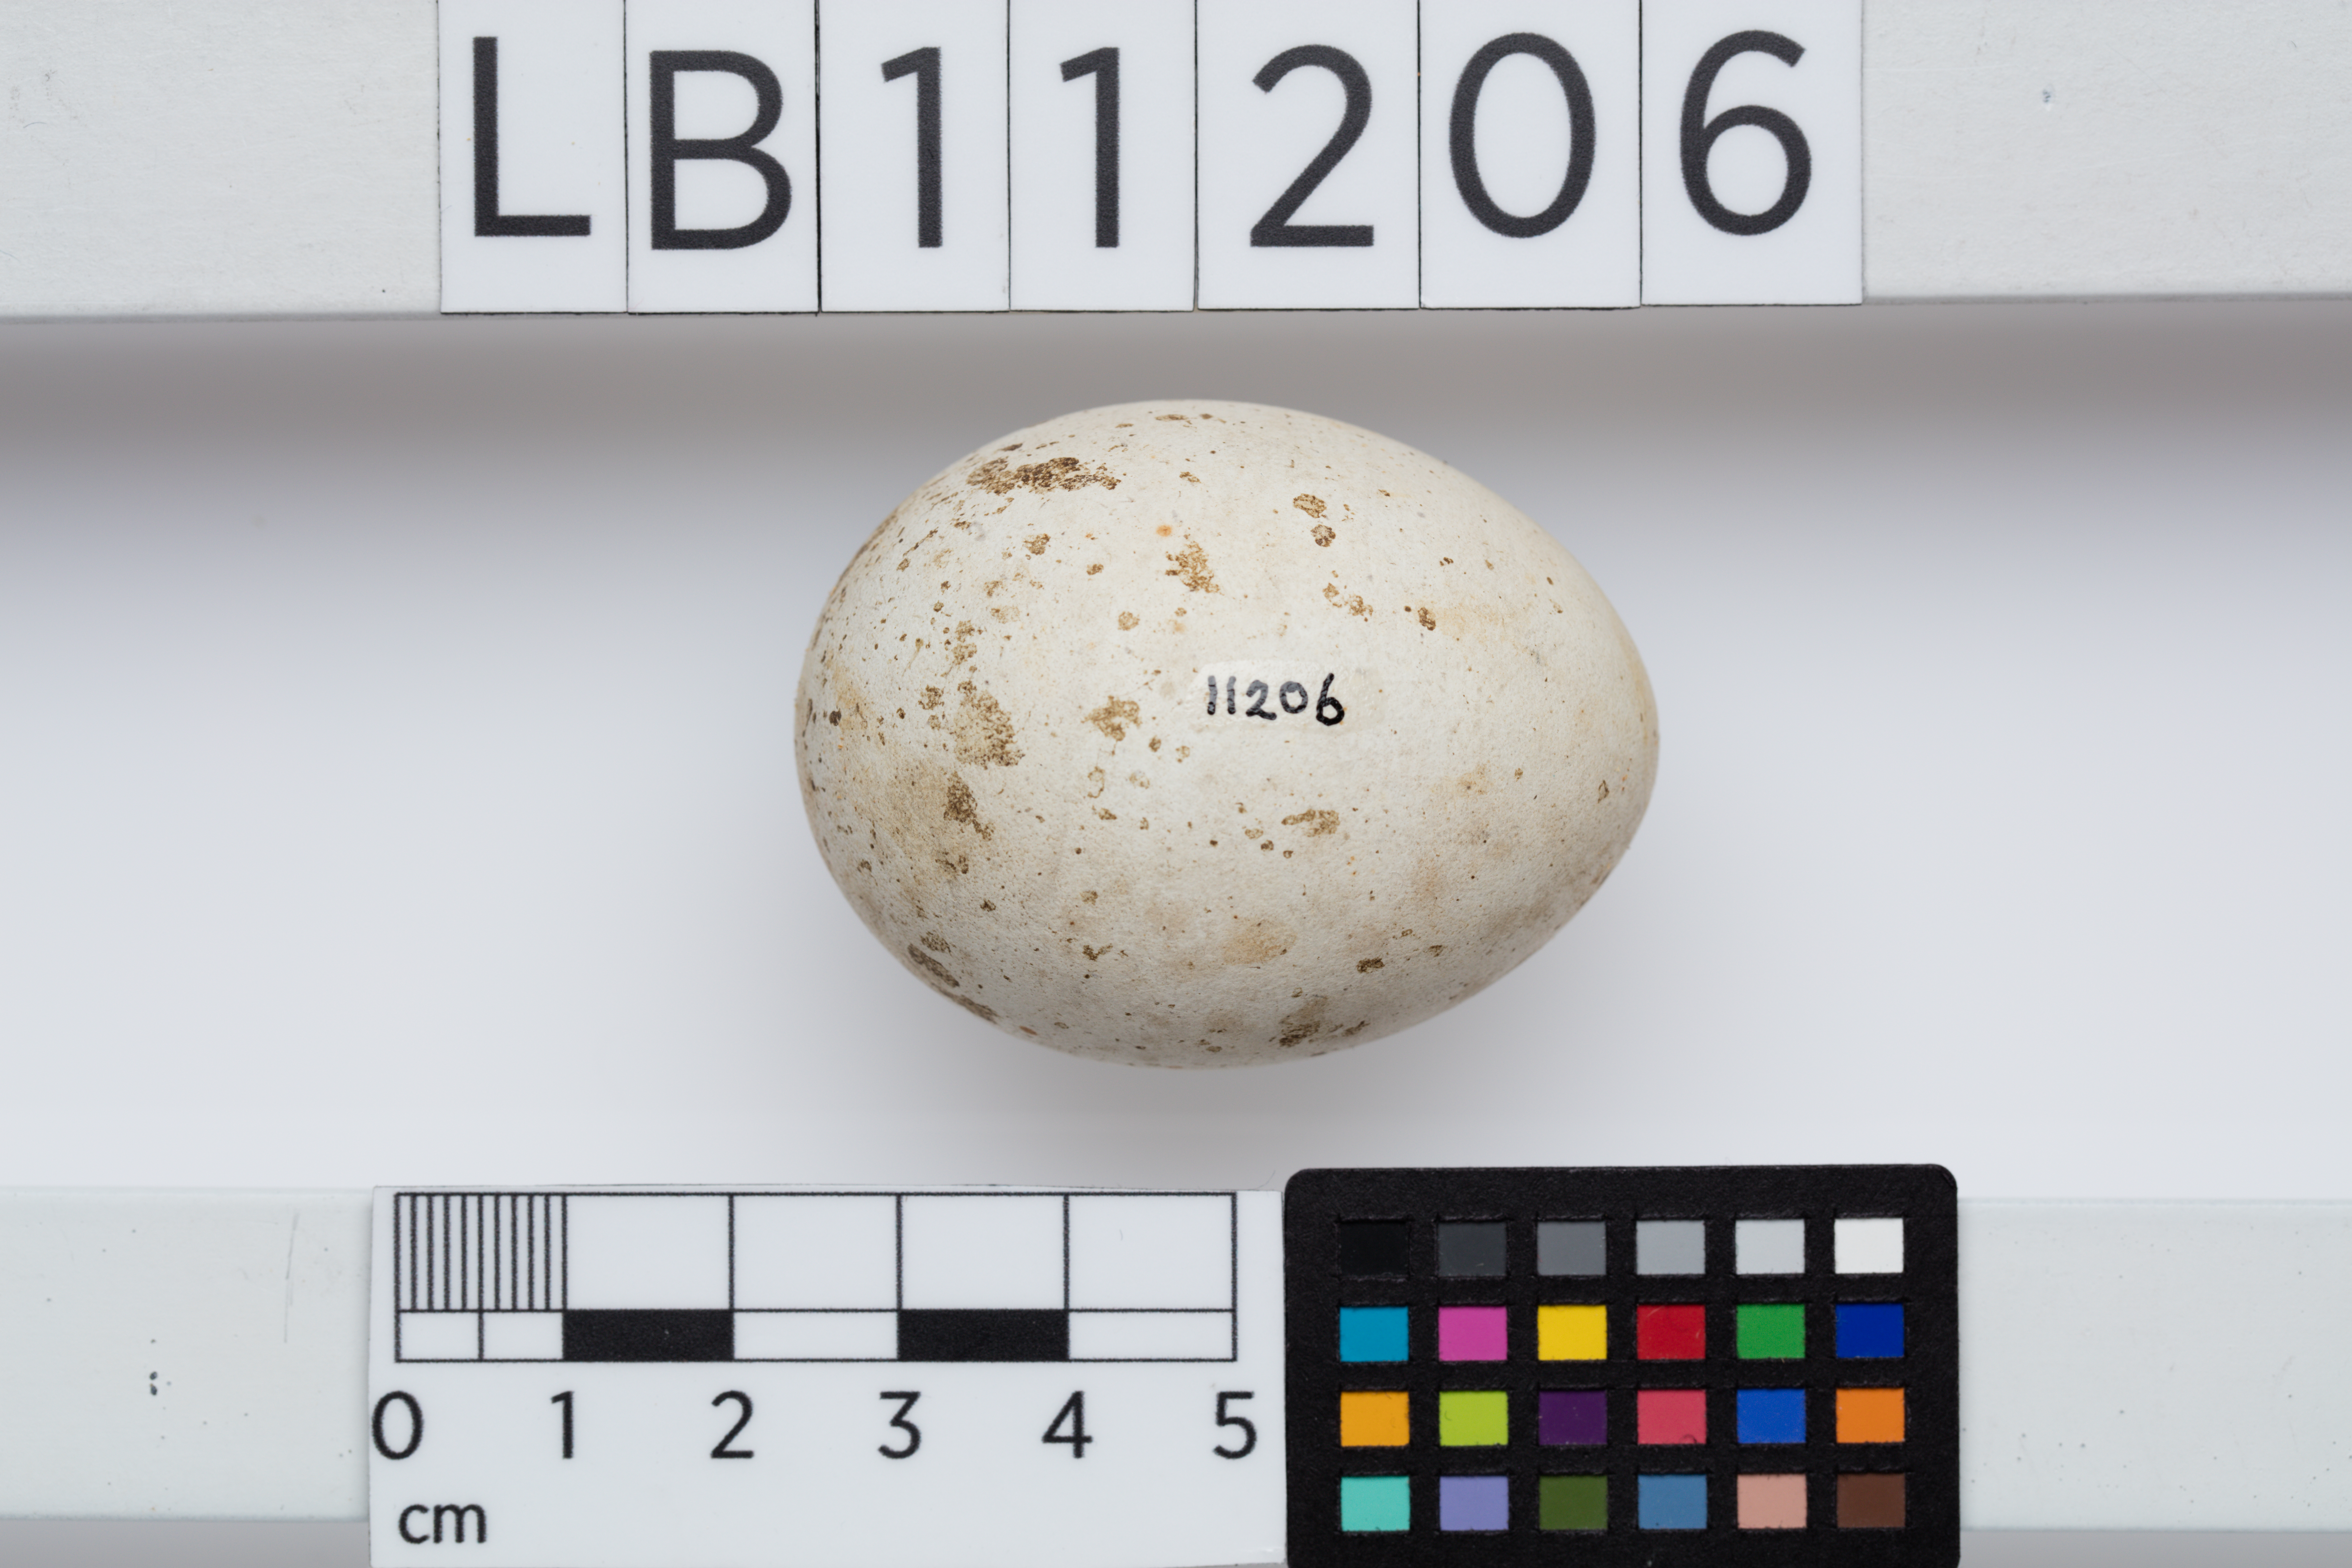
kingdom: Animalia
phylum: Chordata
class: Aves
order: Accipitriformes
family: Accipitridae
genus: Haliastur
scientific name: Haliastur indus
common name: Brahminy kite
